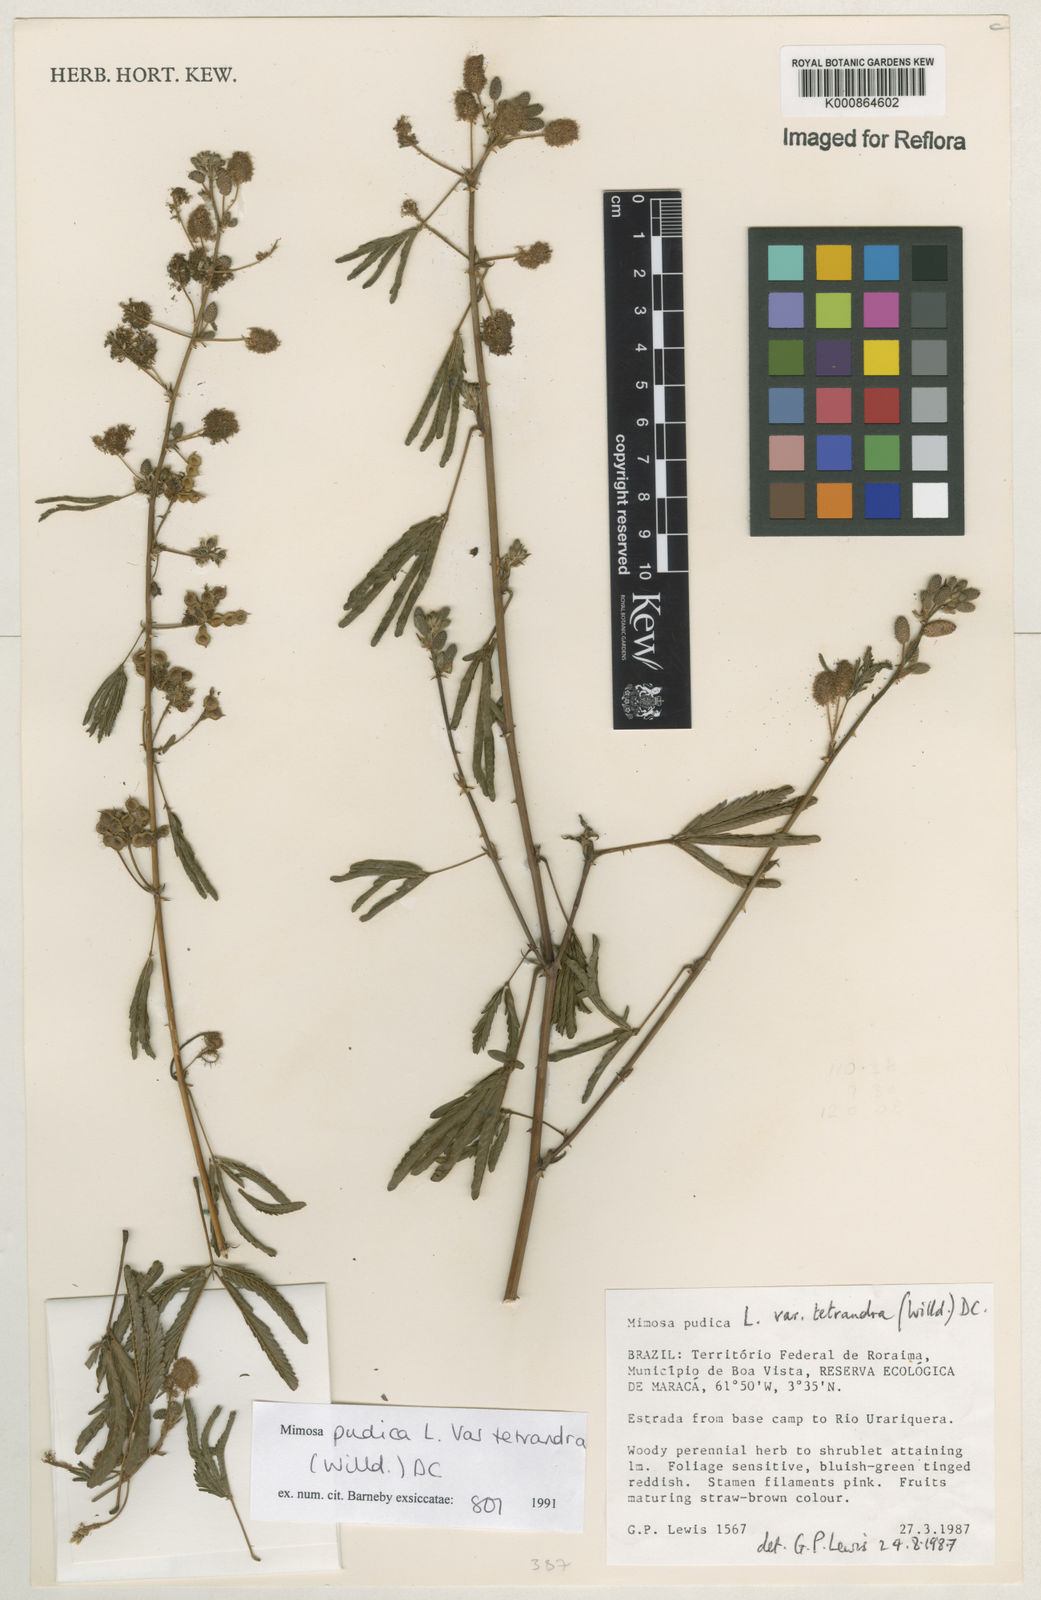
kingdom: Plantae
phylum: Tracheophyta
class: Magnoliopsida
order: Fabales
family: Fabaceae
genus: Mimosa
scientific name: Mimosa pudica
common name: Sensitive plant
